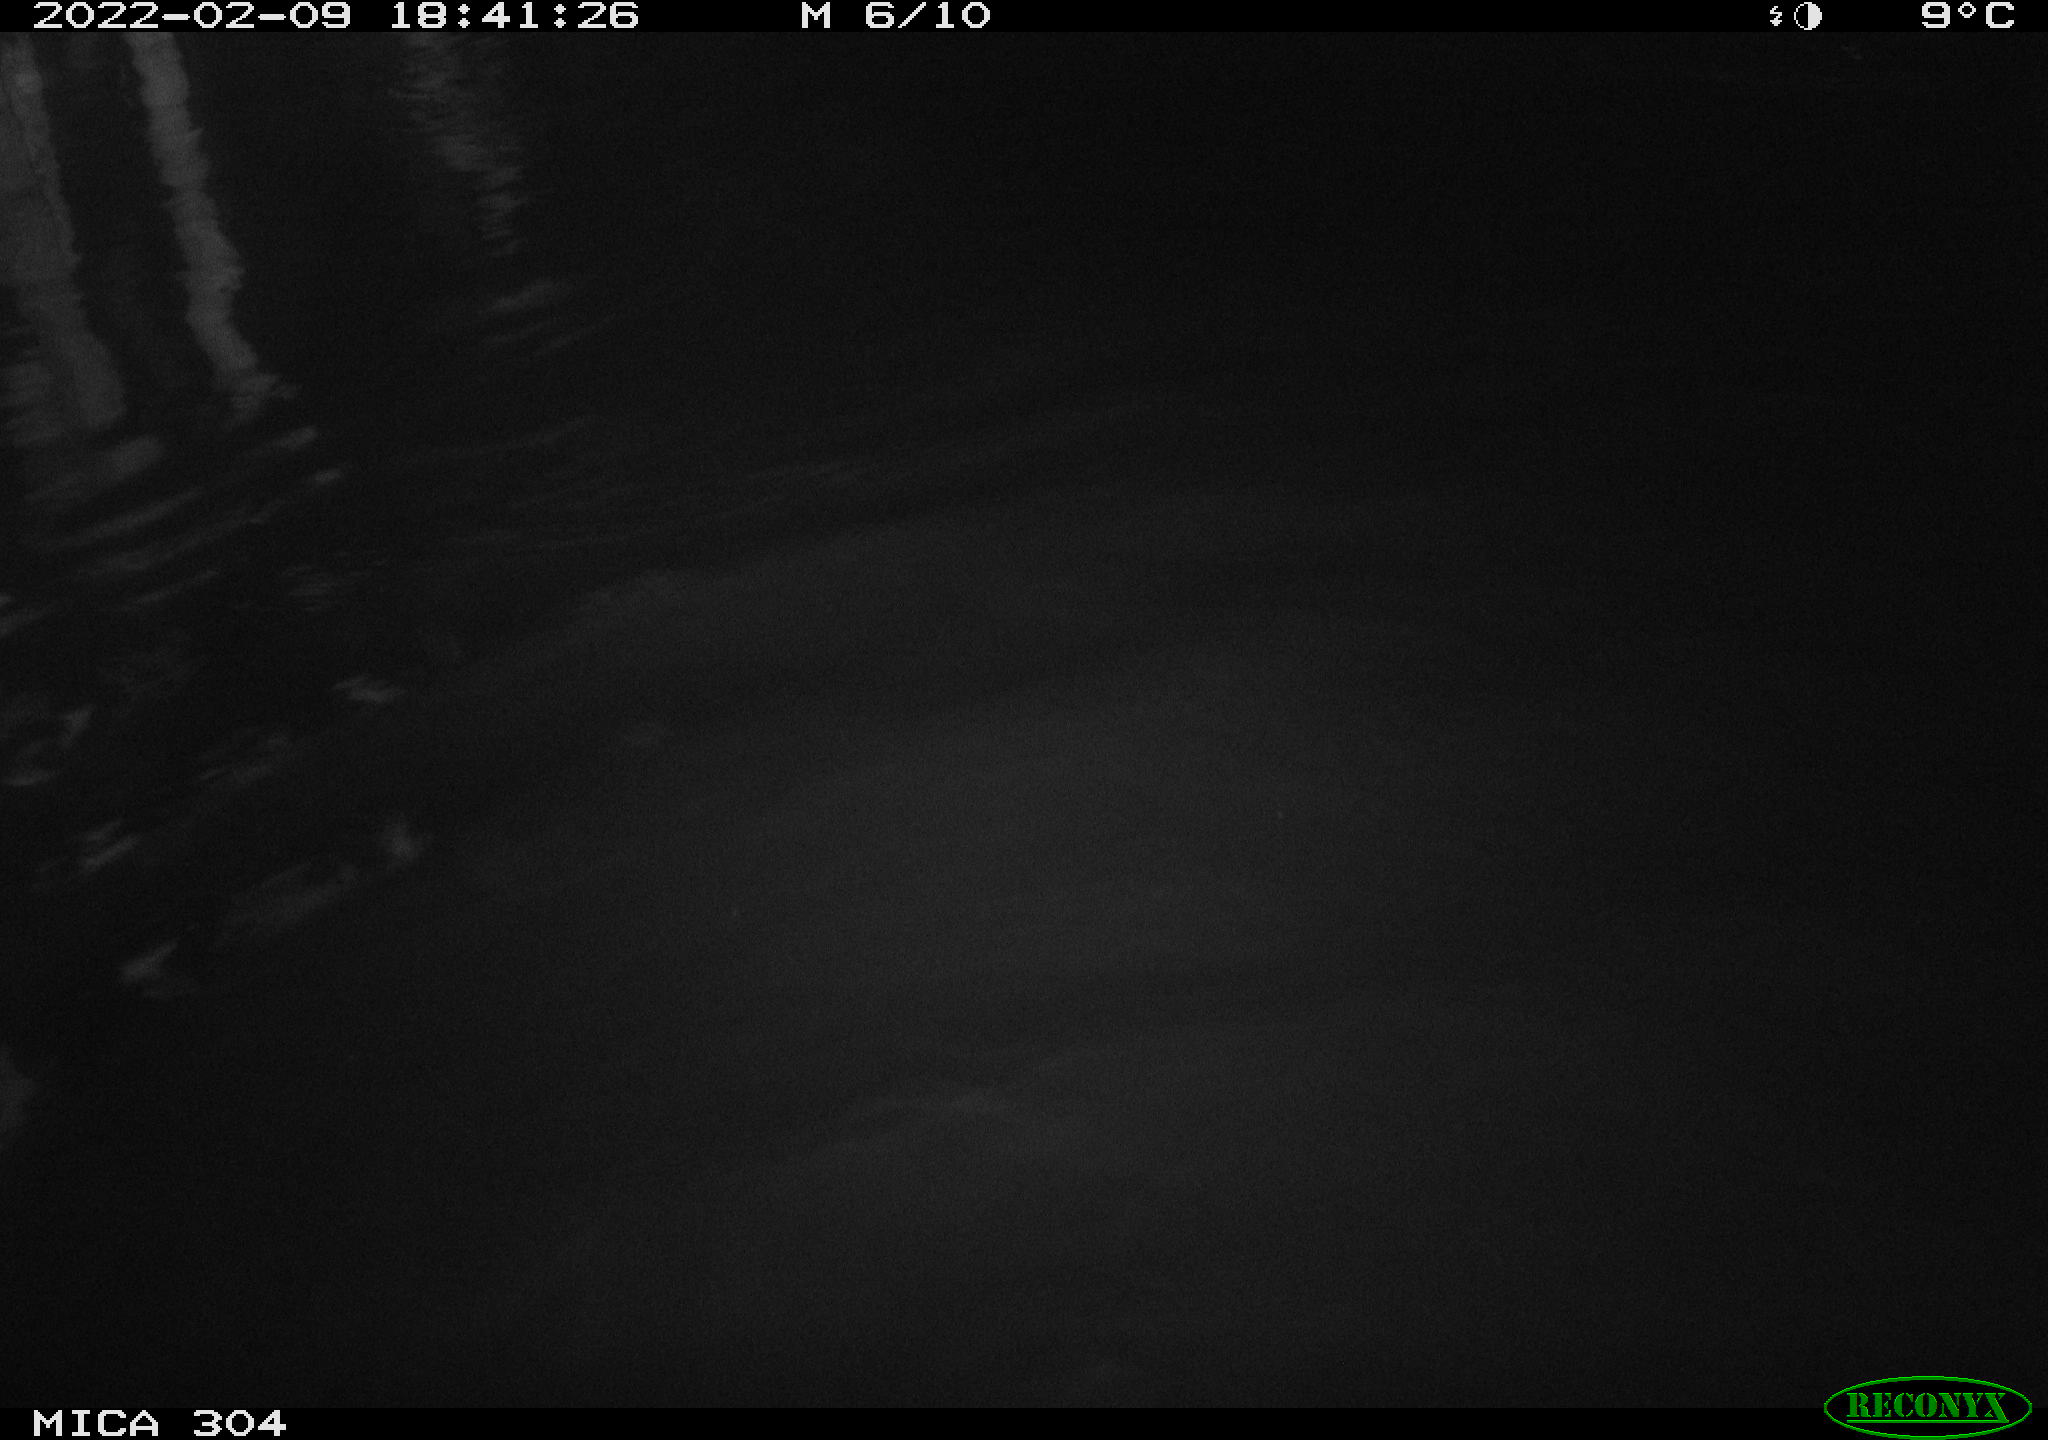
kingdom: Animalia
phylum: Chordata
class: Aves
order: Anseriformes
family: Anatidae
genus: Anas
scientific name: Anas platyrhynchos
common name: Mallard
